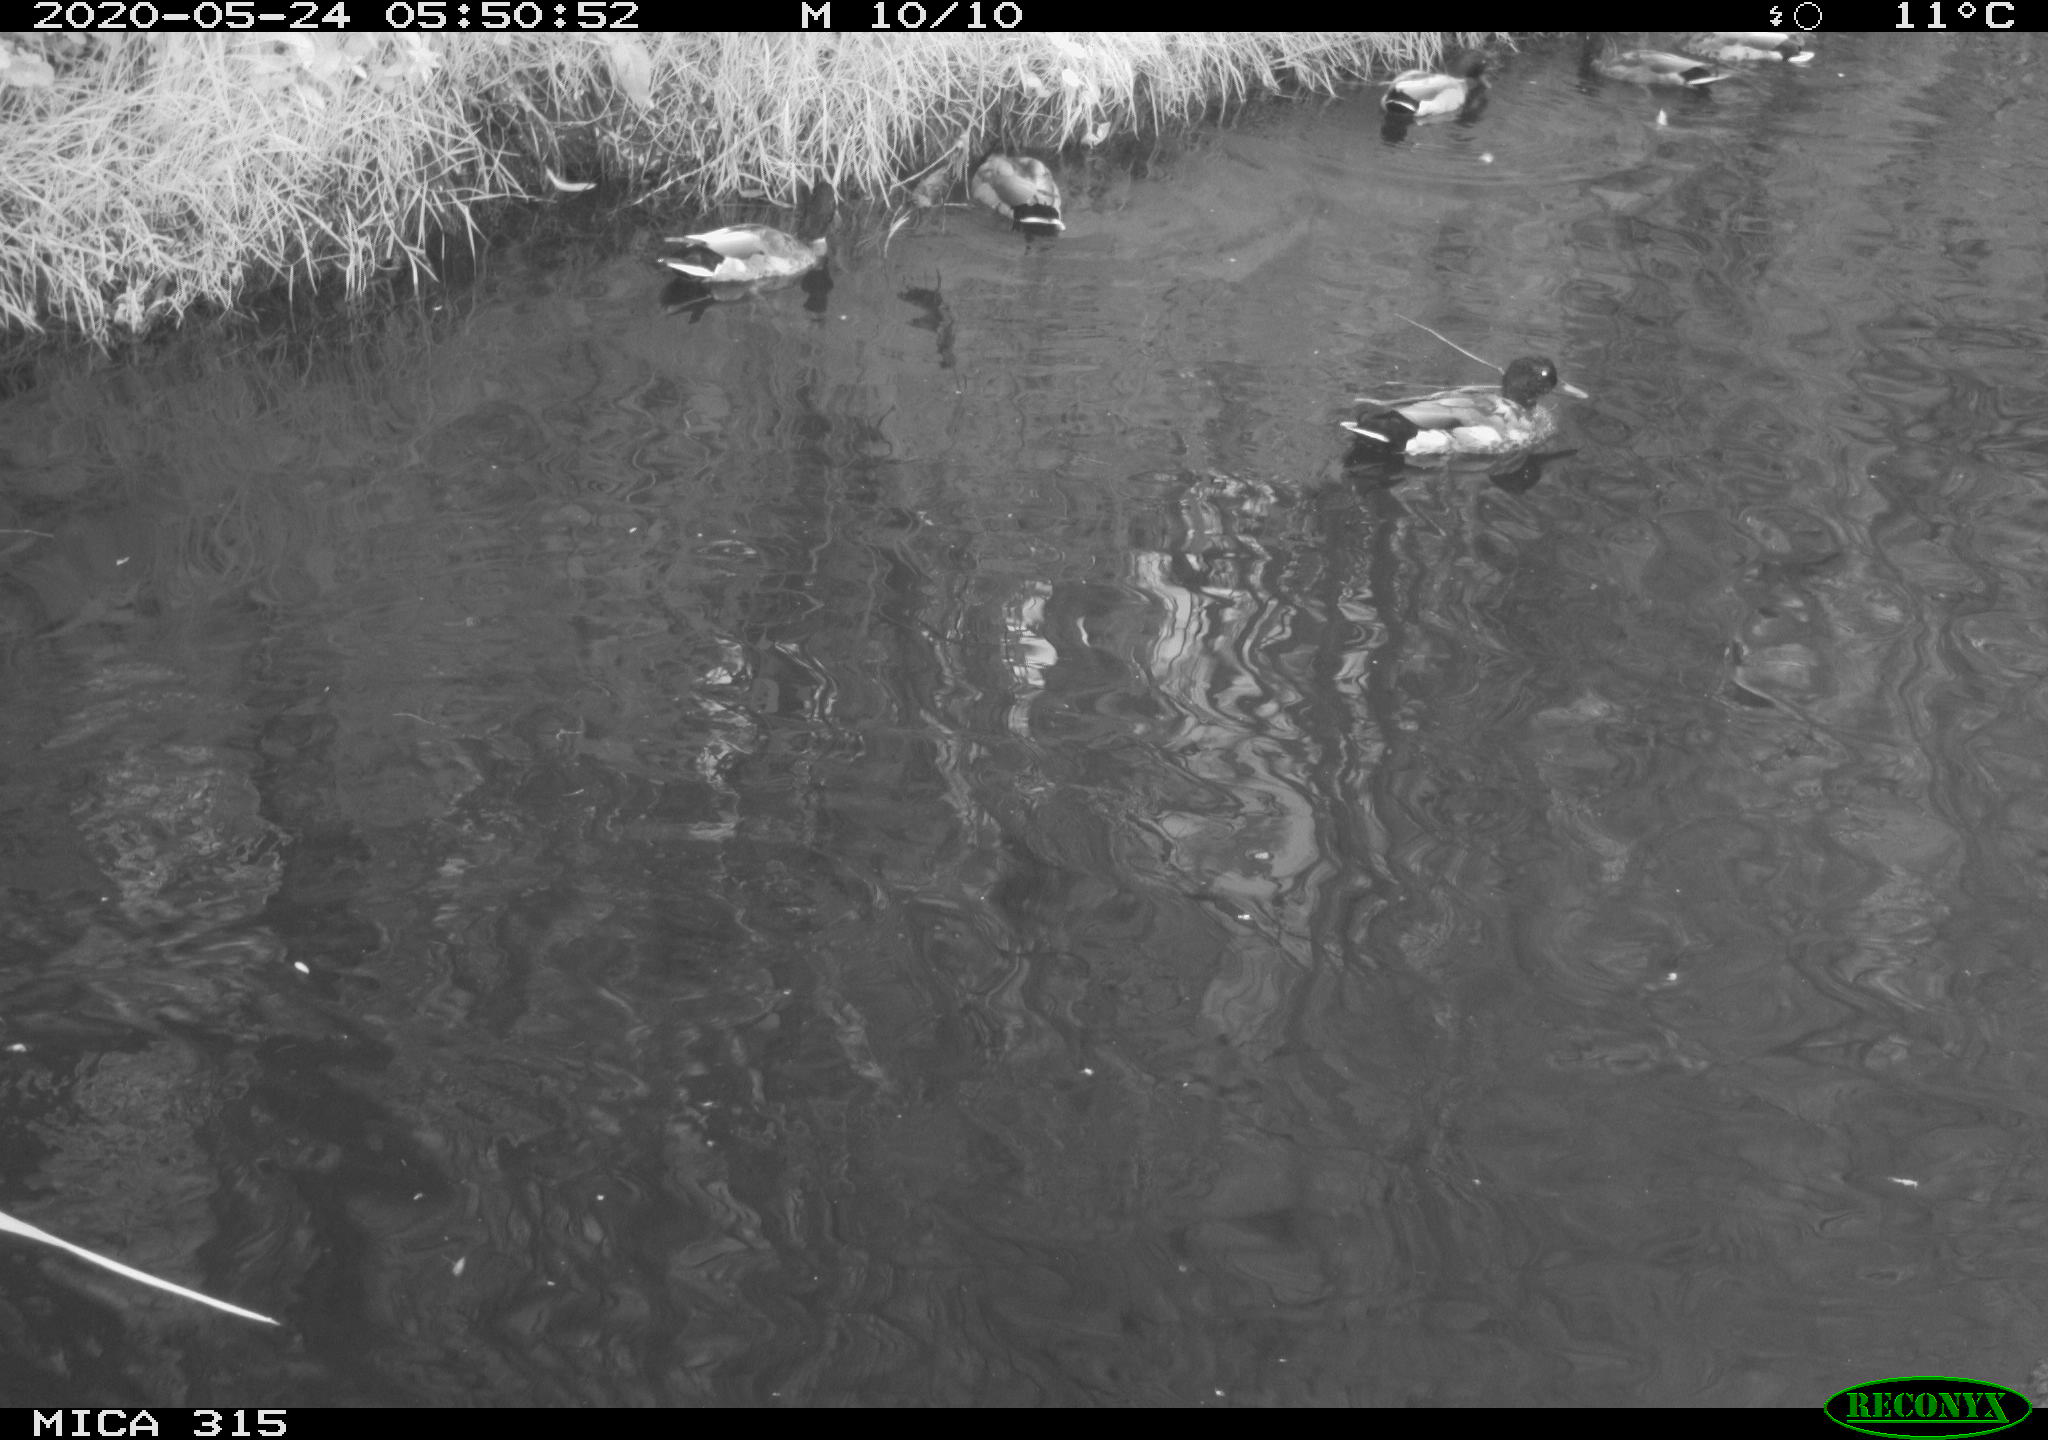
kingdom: Animalia
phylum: Chordata
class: Aves
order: Anseriformes
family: Anatidae
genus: Anas
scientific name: Anas platyrhynchos
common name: Mallard
